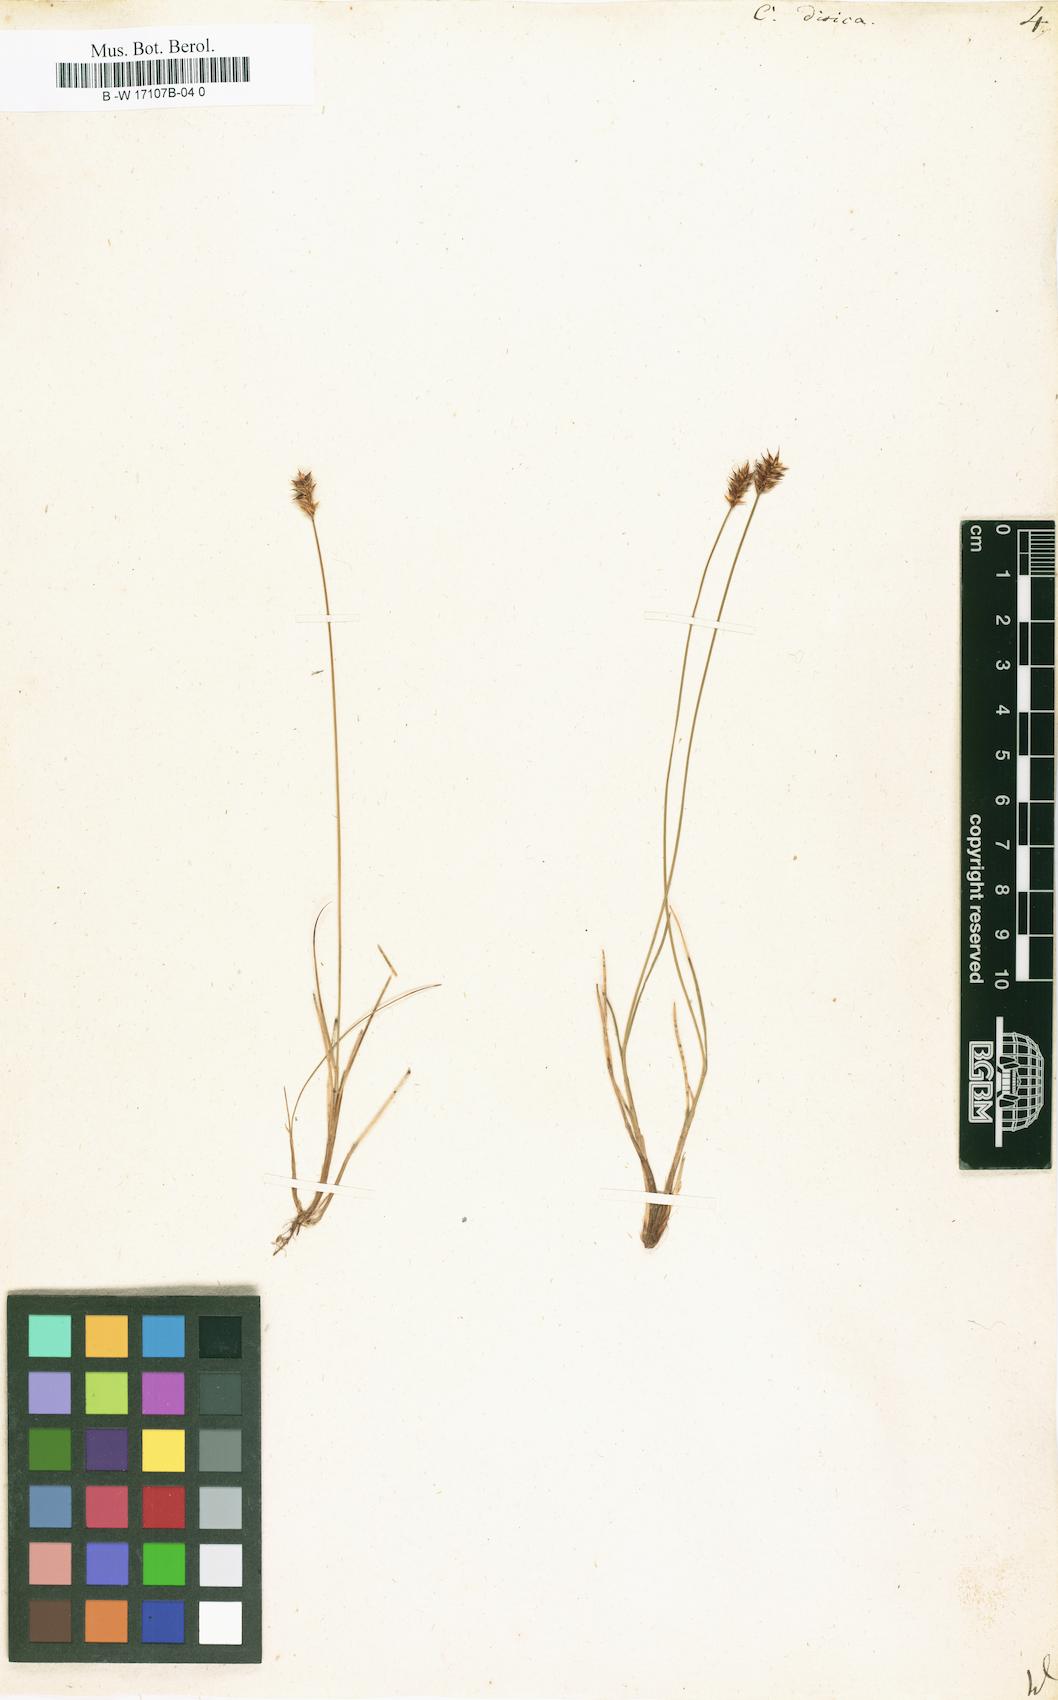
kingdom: Plantae
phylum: Tracheophyta
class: Liliopsida
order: Poales
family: Cyperaceae
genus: Carex
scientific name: Carex dioica
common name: Dioecious sedge
